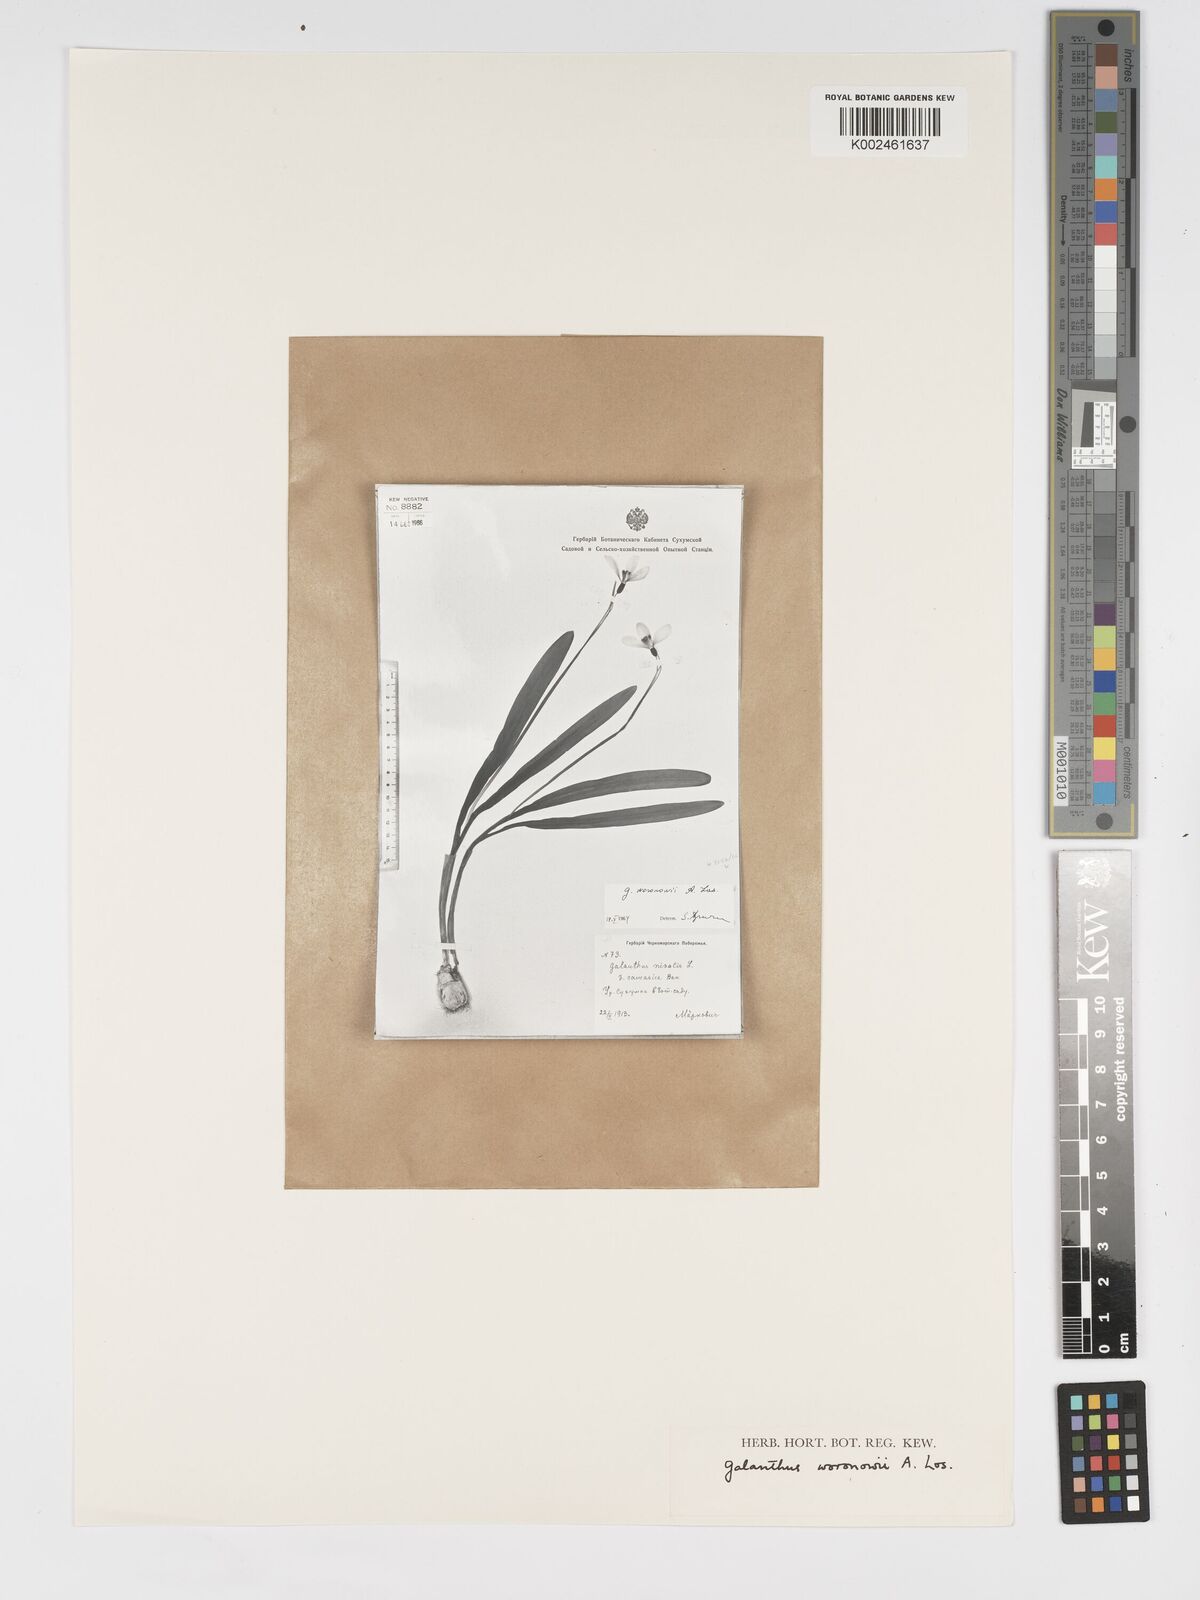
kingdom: Plantae
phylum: Tracheophyta
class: Liliopsida
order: Asparagales
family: Amaryllidaceae
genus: Galanthus
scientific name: Galanthus woronowii
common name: Green snowdrop
